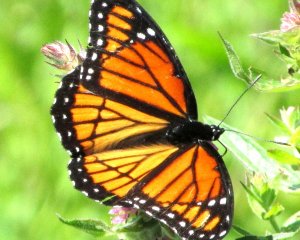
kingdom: Animalia
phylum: Arthropoda
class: Insecta
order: Lepidoptera
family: Nymphalidae
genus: Limenitis
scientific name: Limenitis archippus
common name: Viceroy
